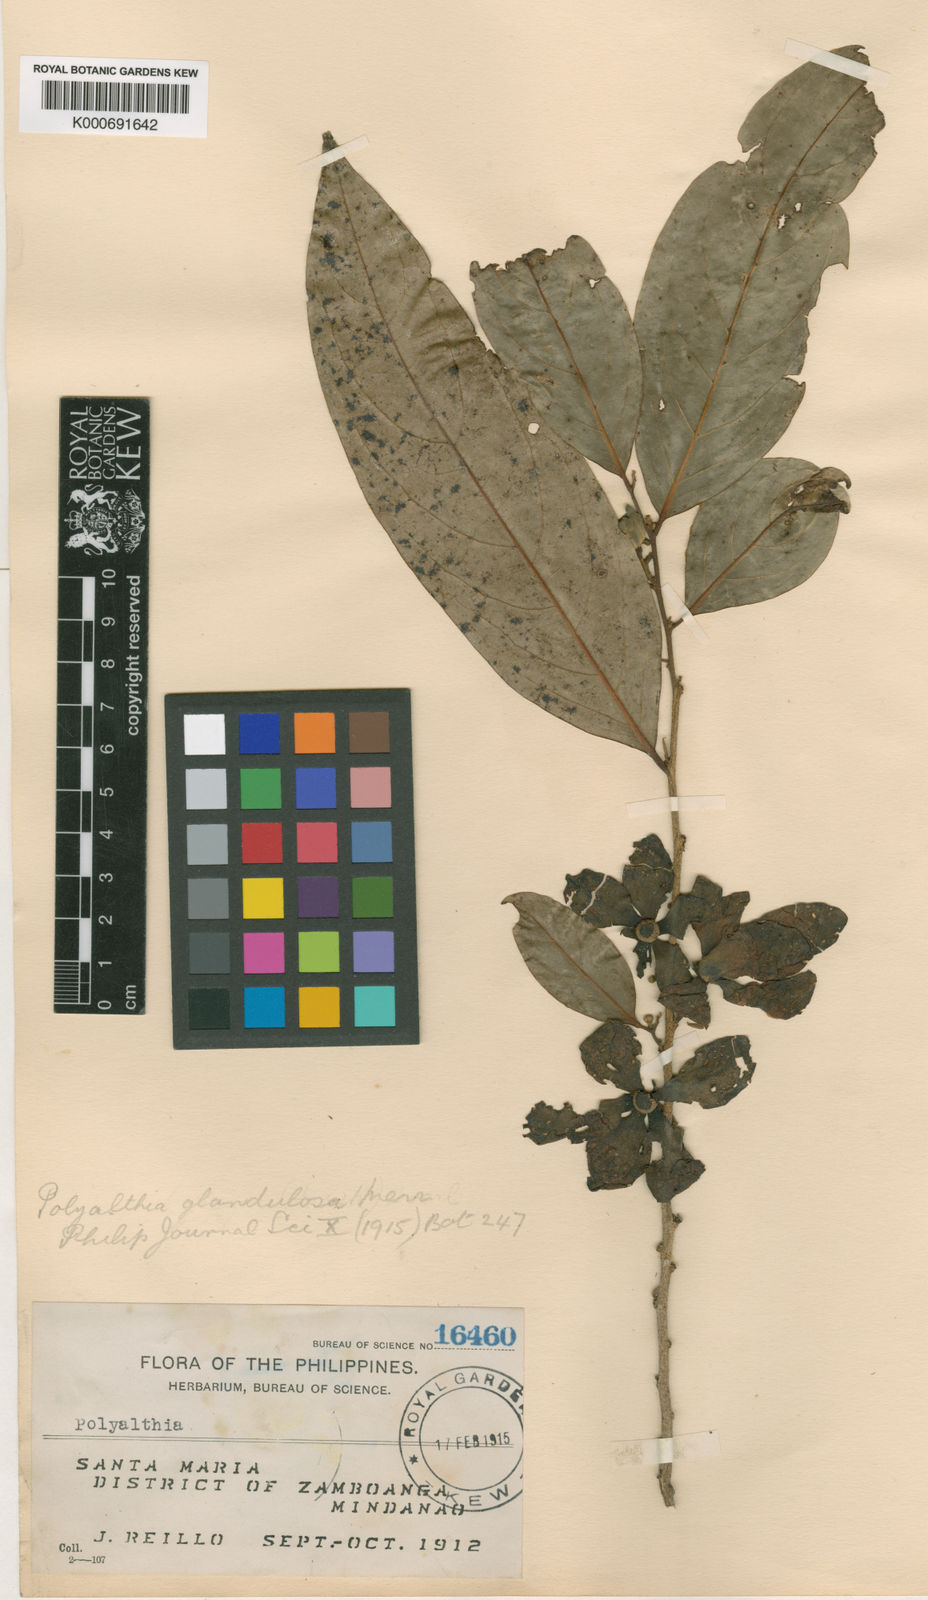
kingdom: Plantae
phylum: Tracheophyta
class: Magnoliopsida
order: Magnoliales
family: Annonaceae
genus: Hubera
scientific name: Hubera rumphii
